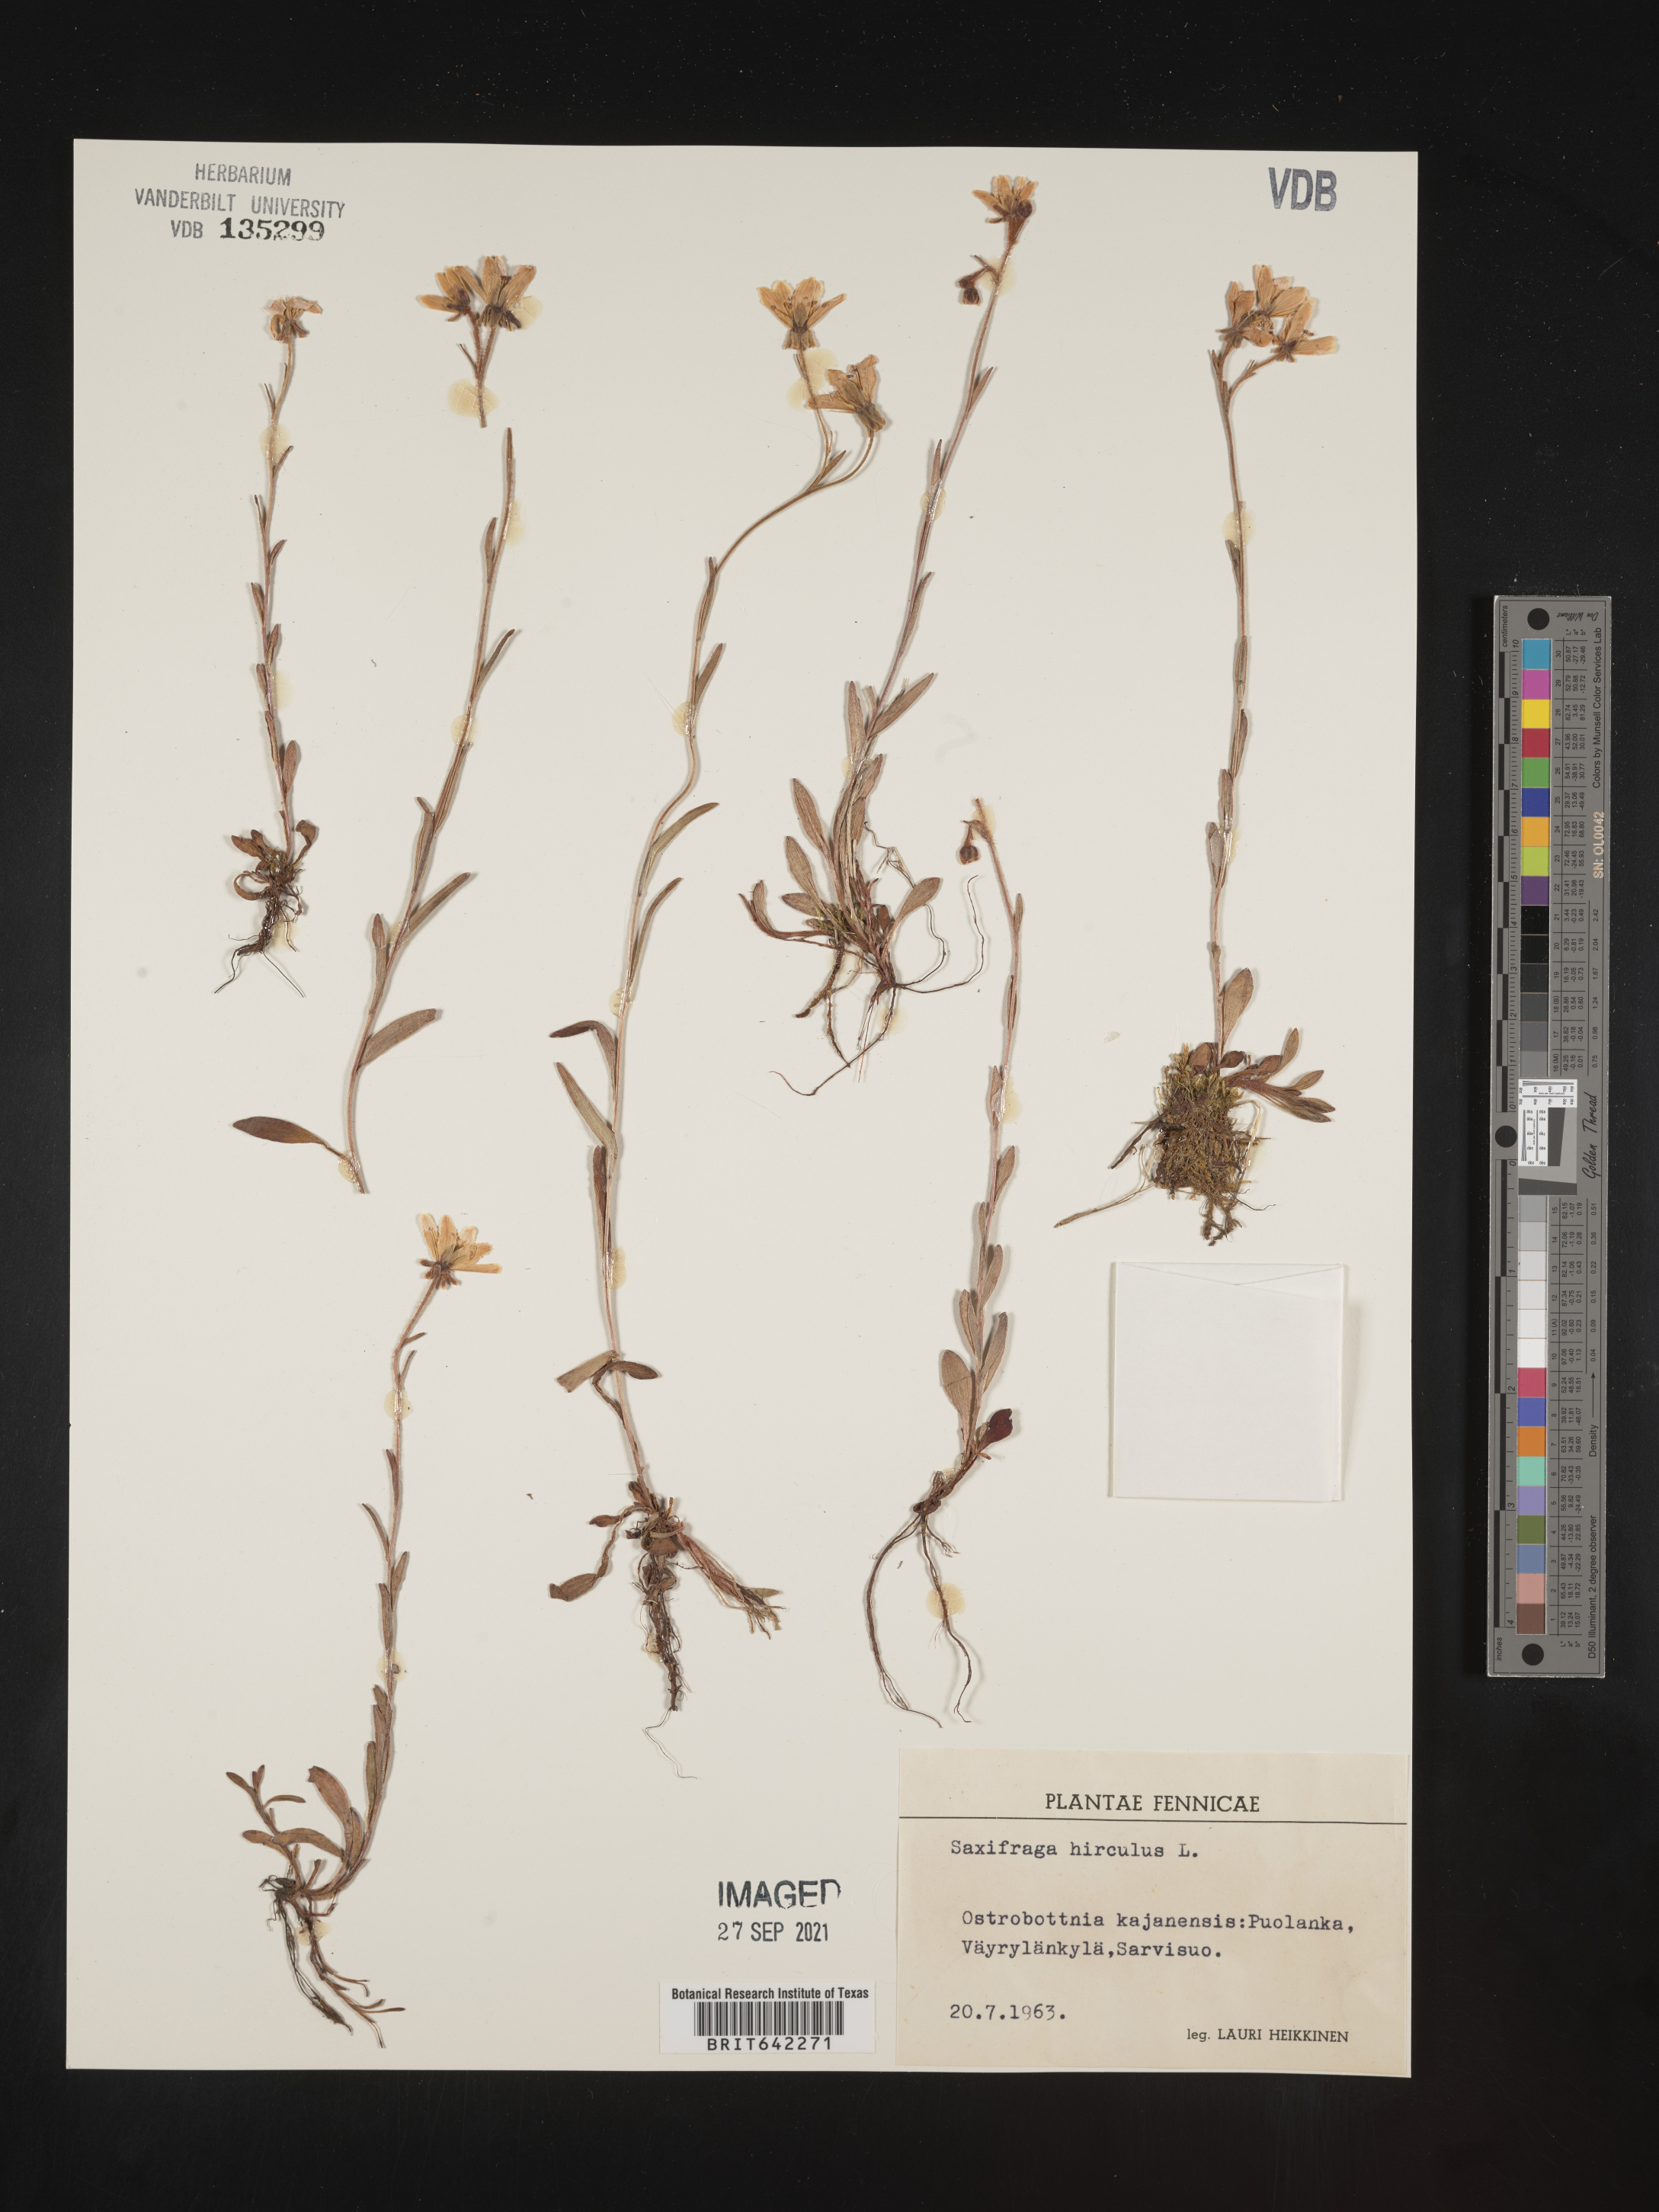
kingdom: Plantae
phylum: Tracheophyta
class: Magnoliopsida
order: Saxifragales
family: Saxifragaceae
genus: Saxifraga
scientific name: Saxifraga
